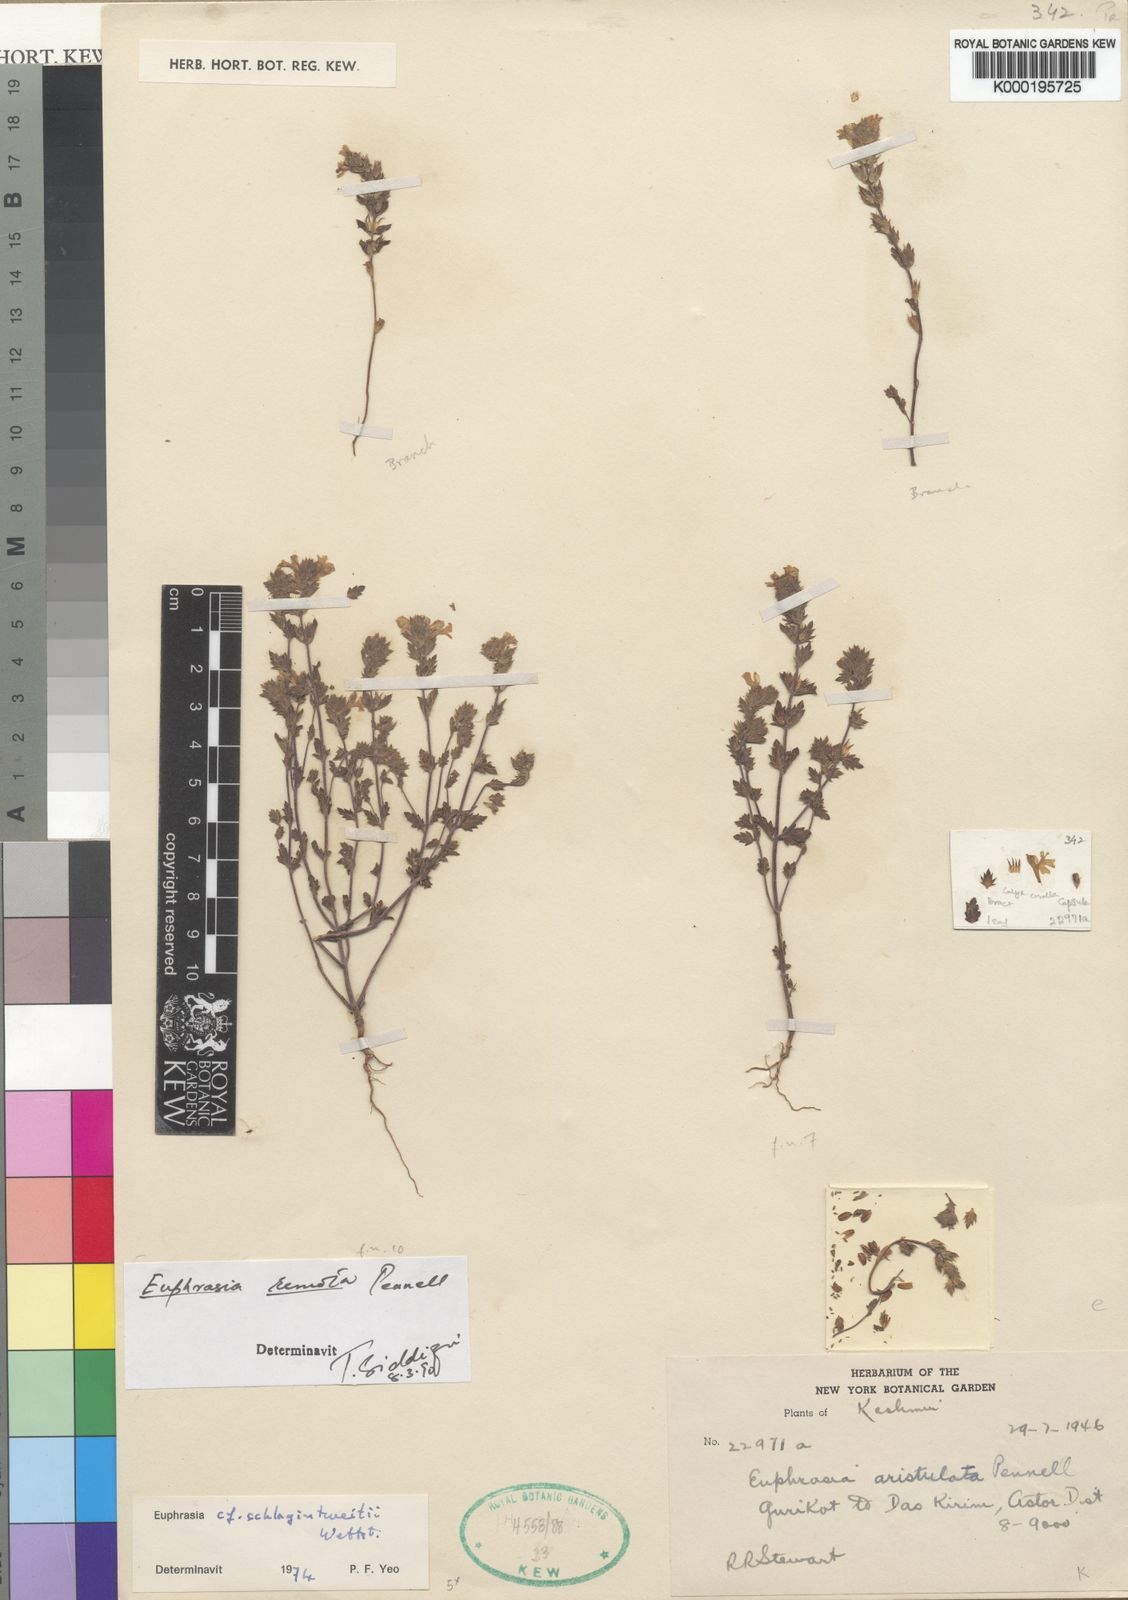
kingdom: Plantae
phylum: Tracheophyta
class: Magnoliopsida
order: Lamiales
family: Orobanchaceae
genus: Euphrasia
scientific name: Euphrasia remota
